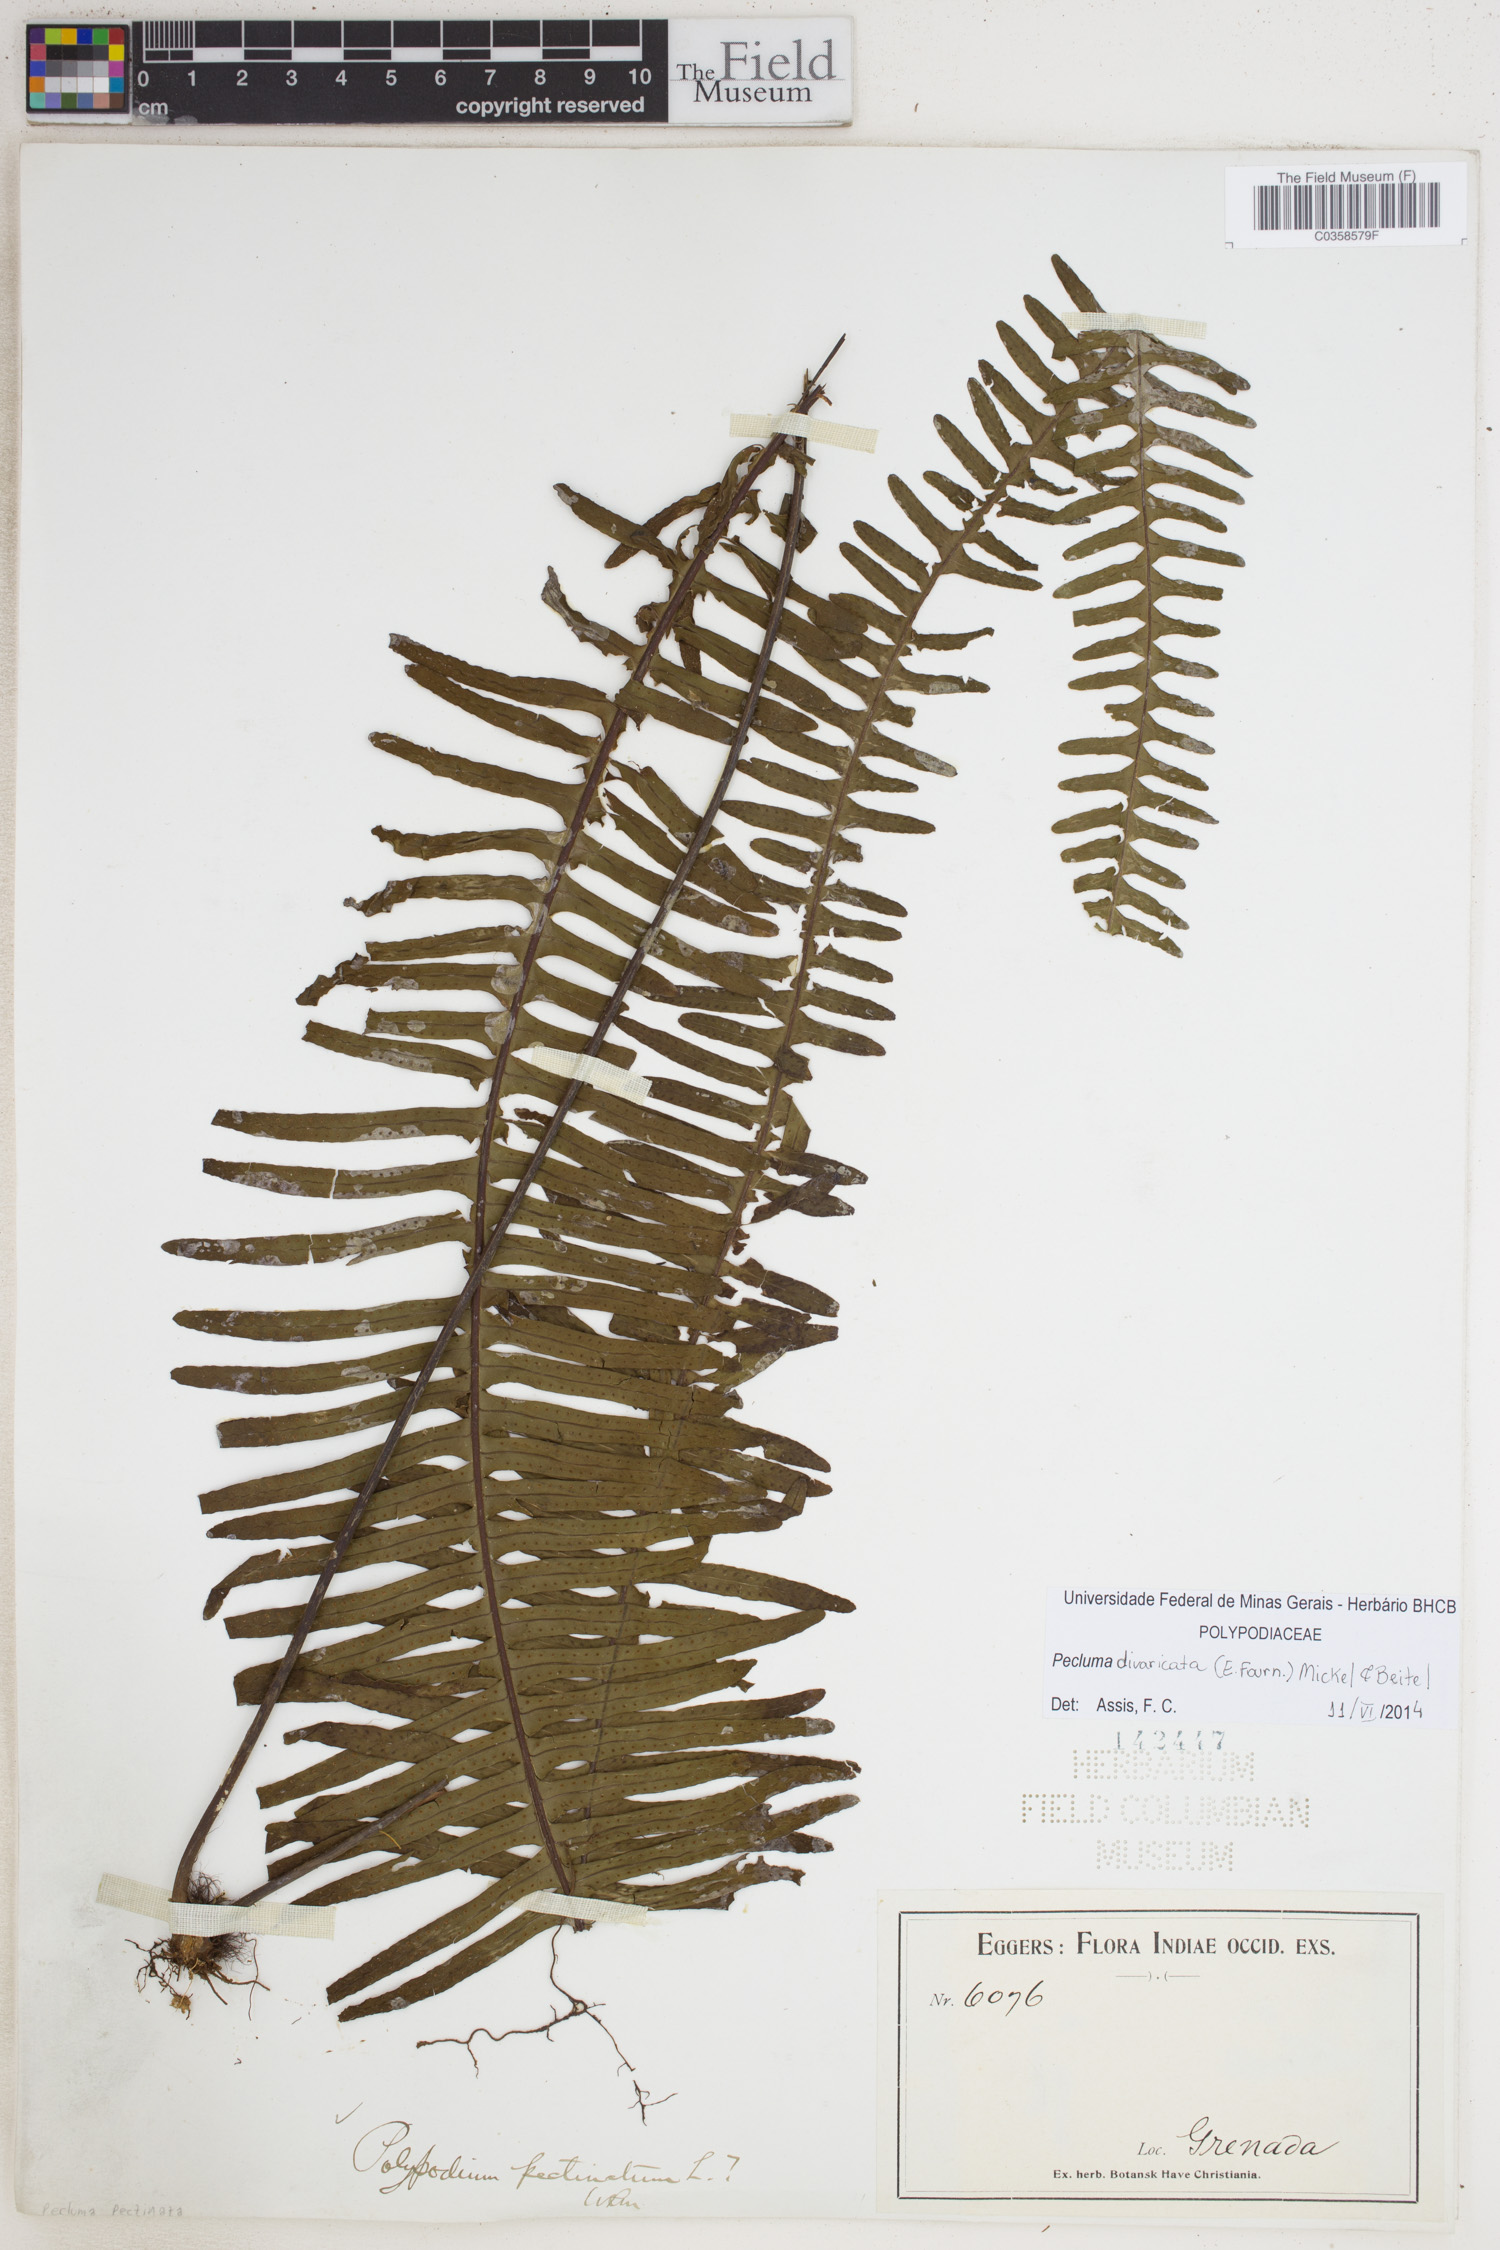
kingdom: Plantae
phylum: Tracheophyta
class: Polypodiopsida
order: Polypodiales
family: Polypodiaceae
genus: Pecluma
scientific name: Pecluma divaricata
